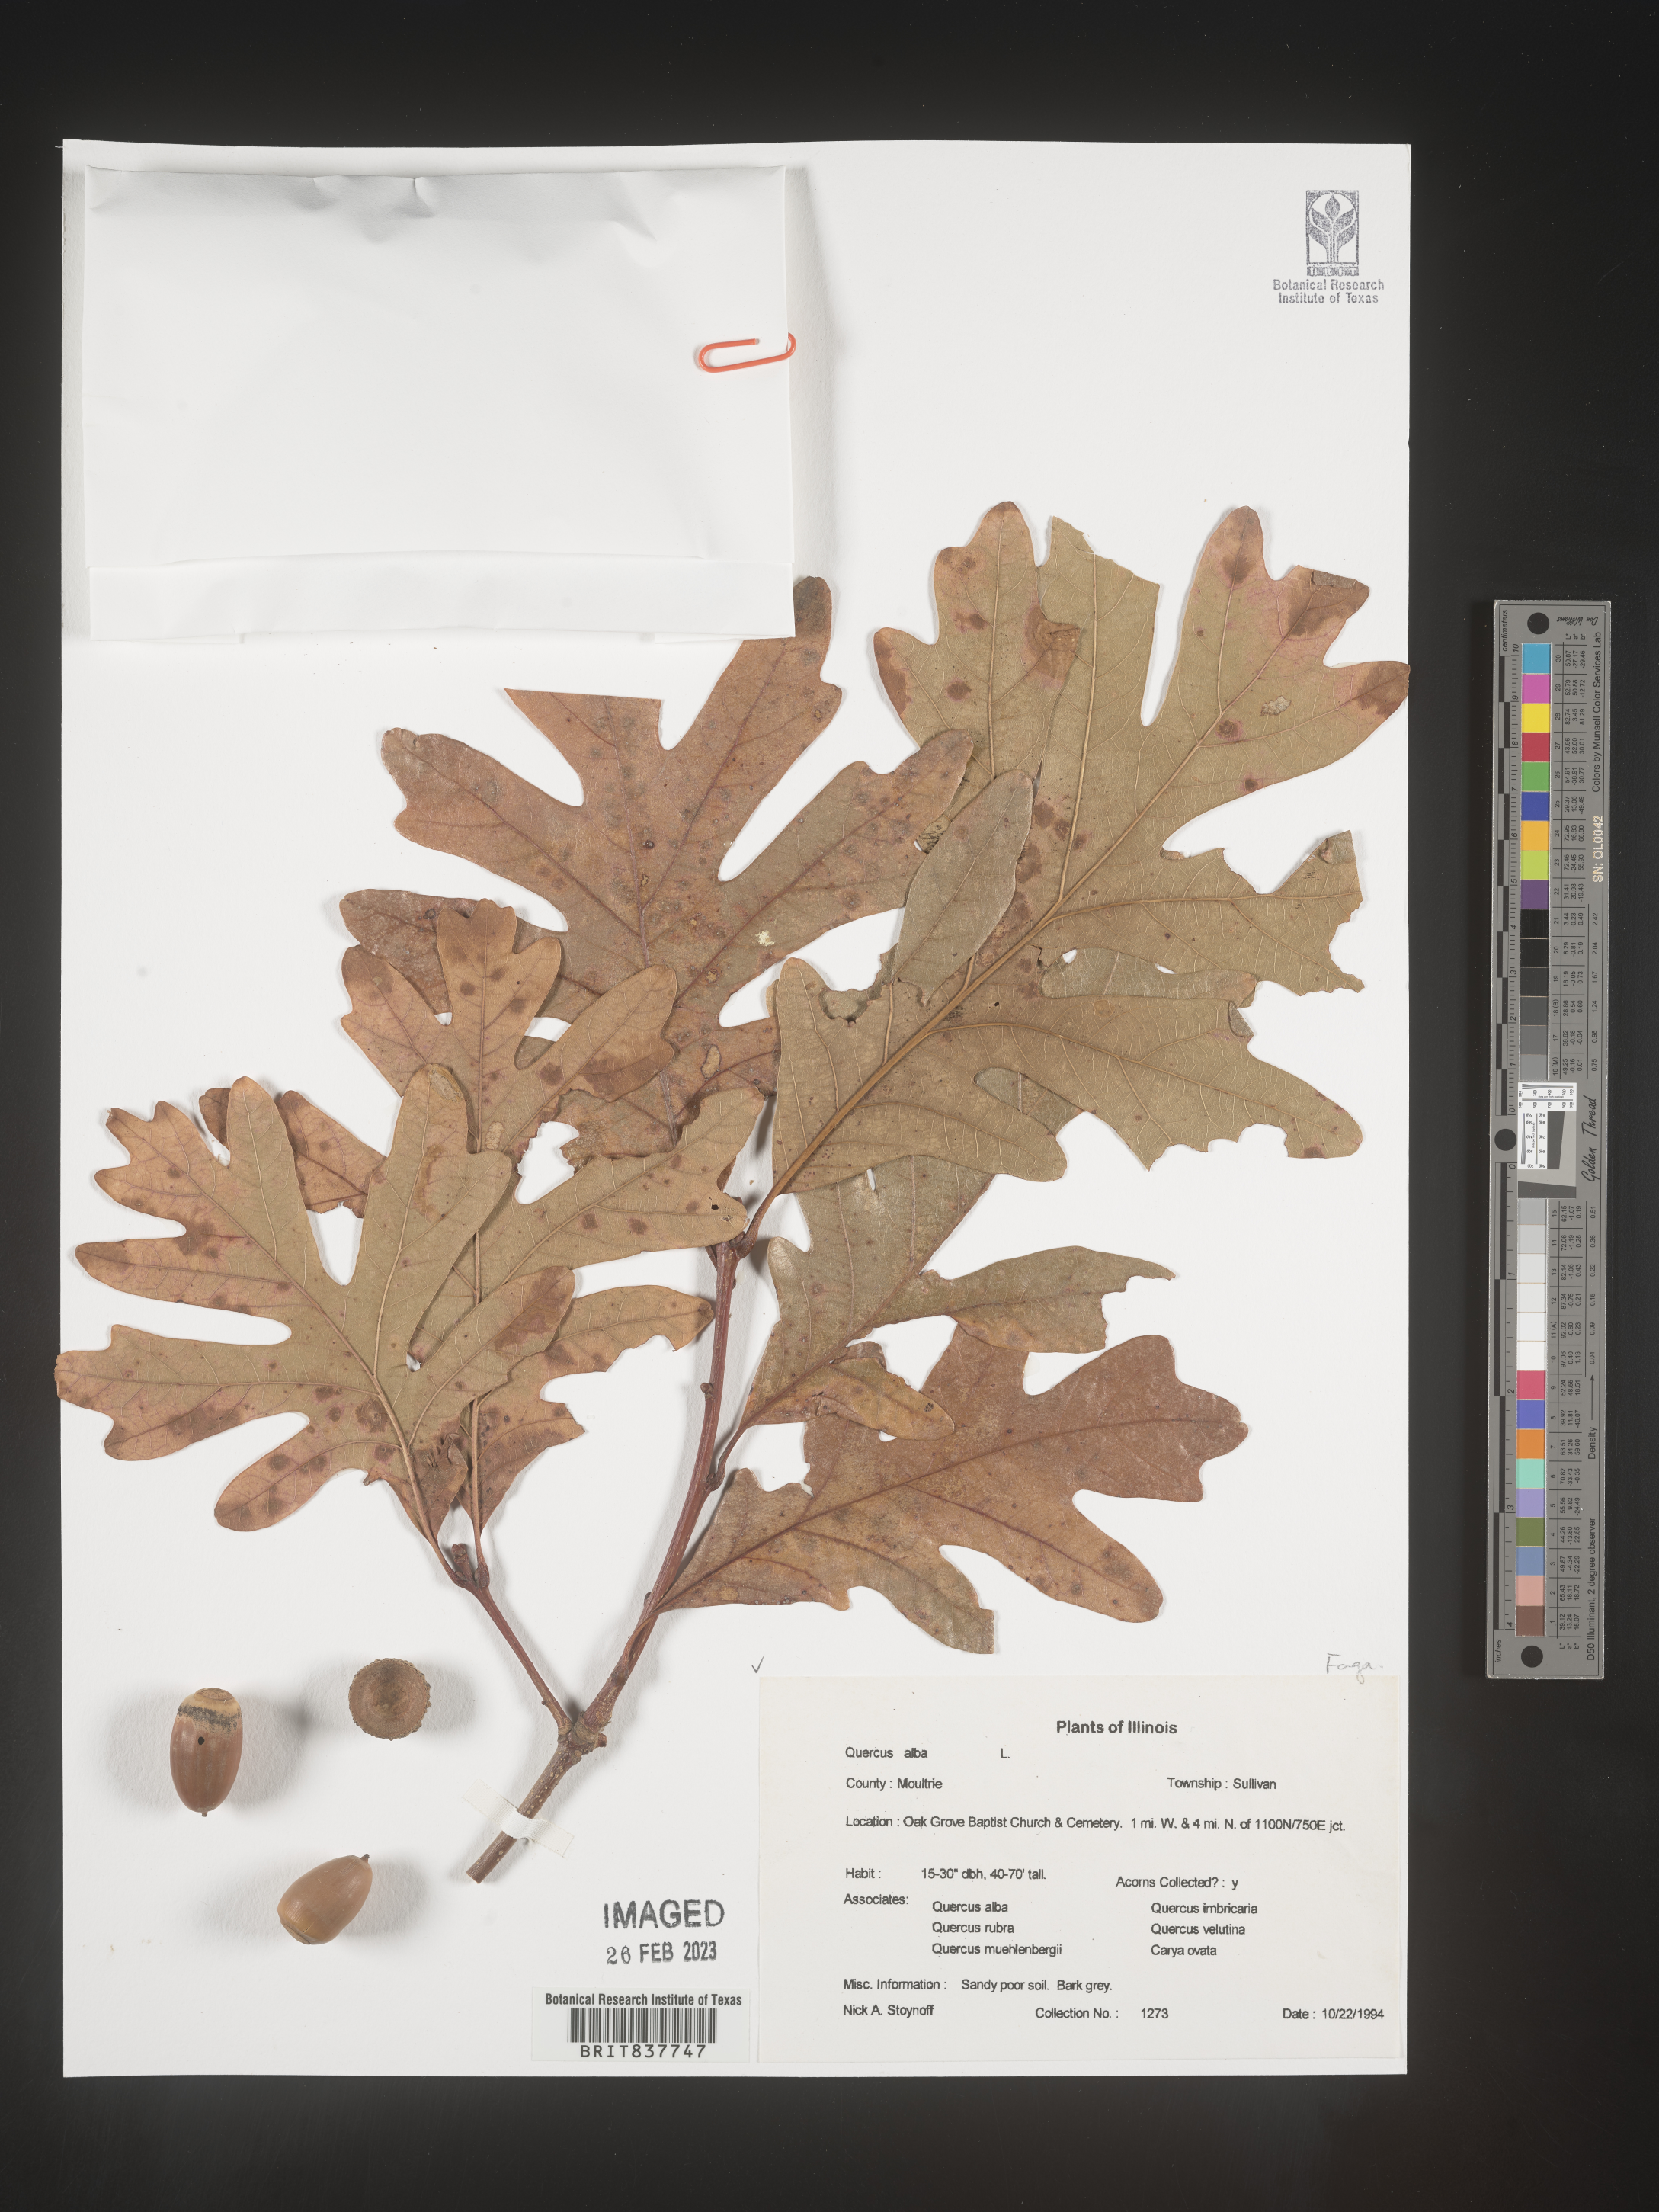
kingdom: Plantae
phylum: Tracheophyta
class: Magnoliopsida
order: Fagales
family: Fagaceae
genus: Quercus
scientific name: Quercus alba
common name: White oak
